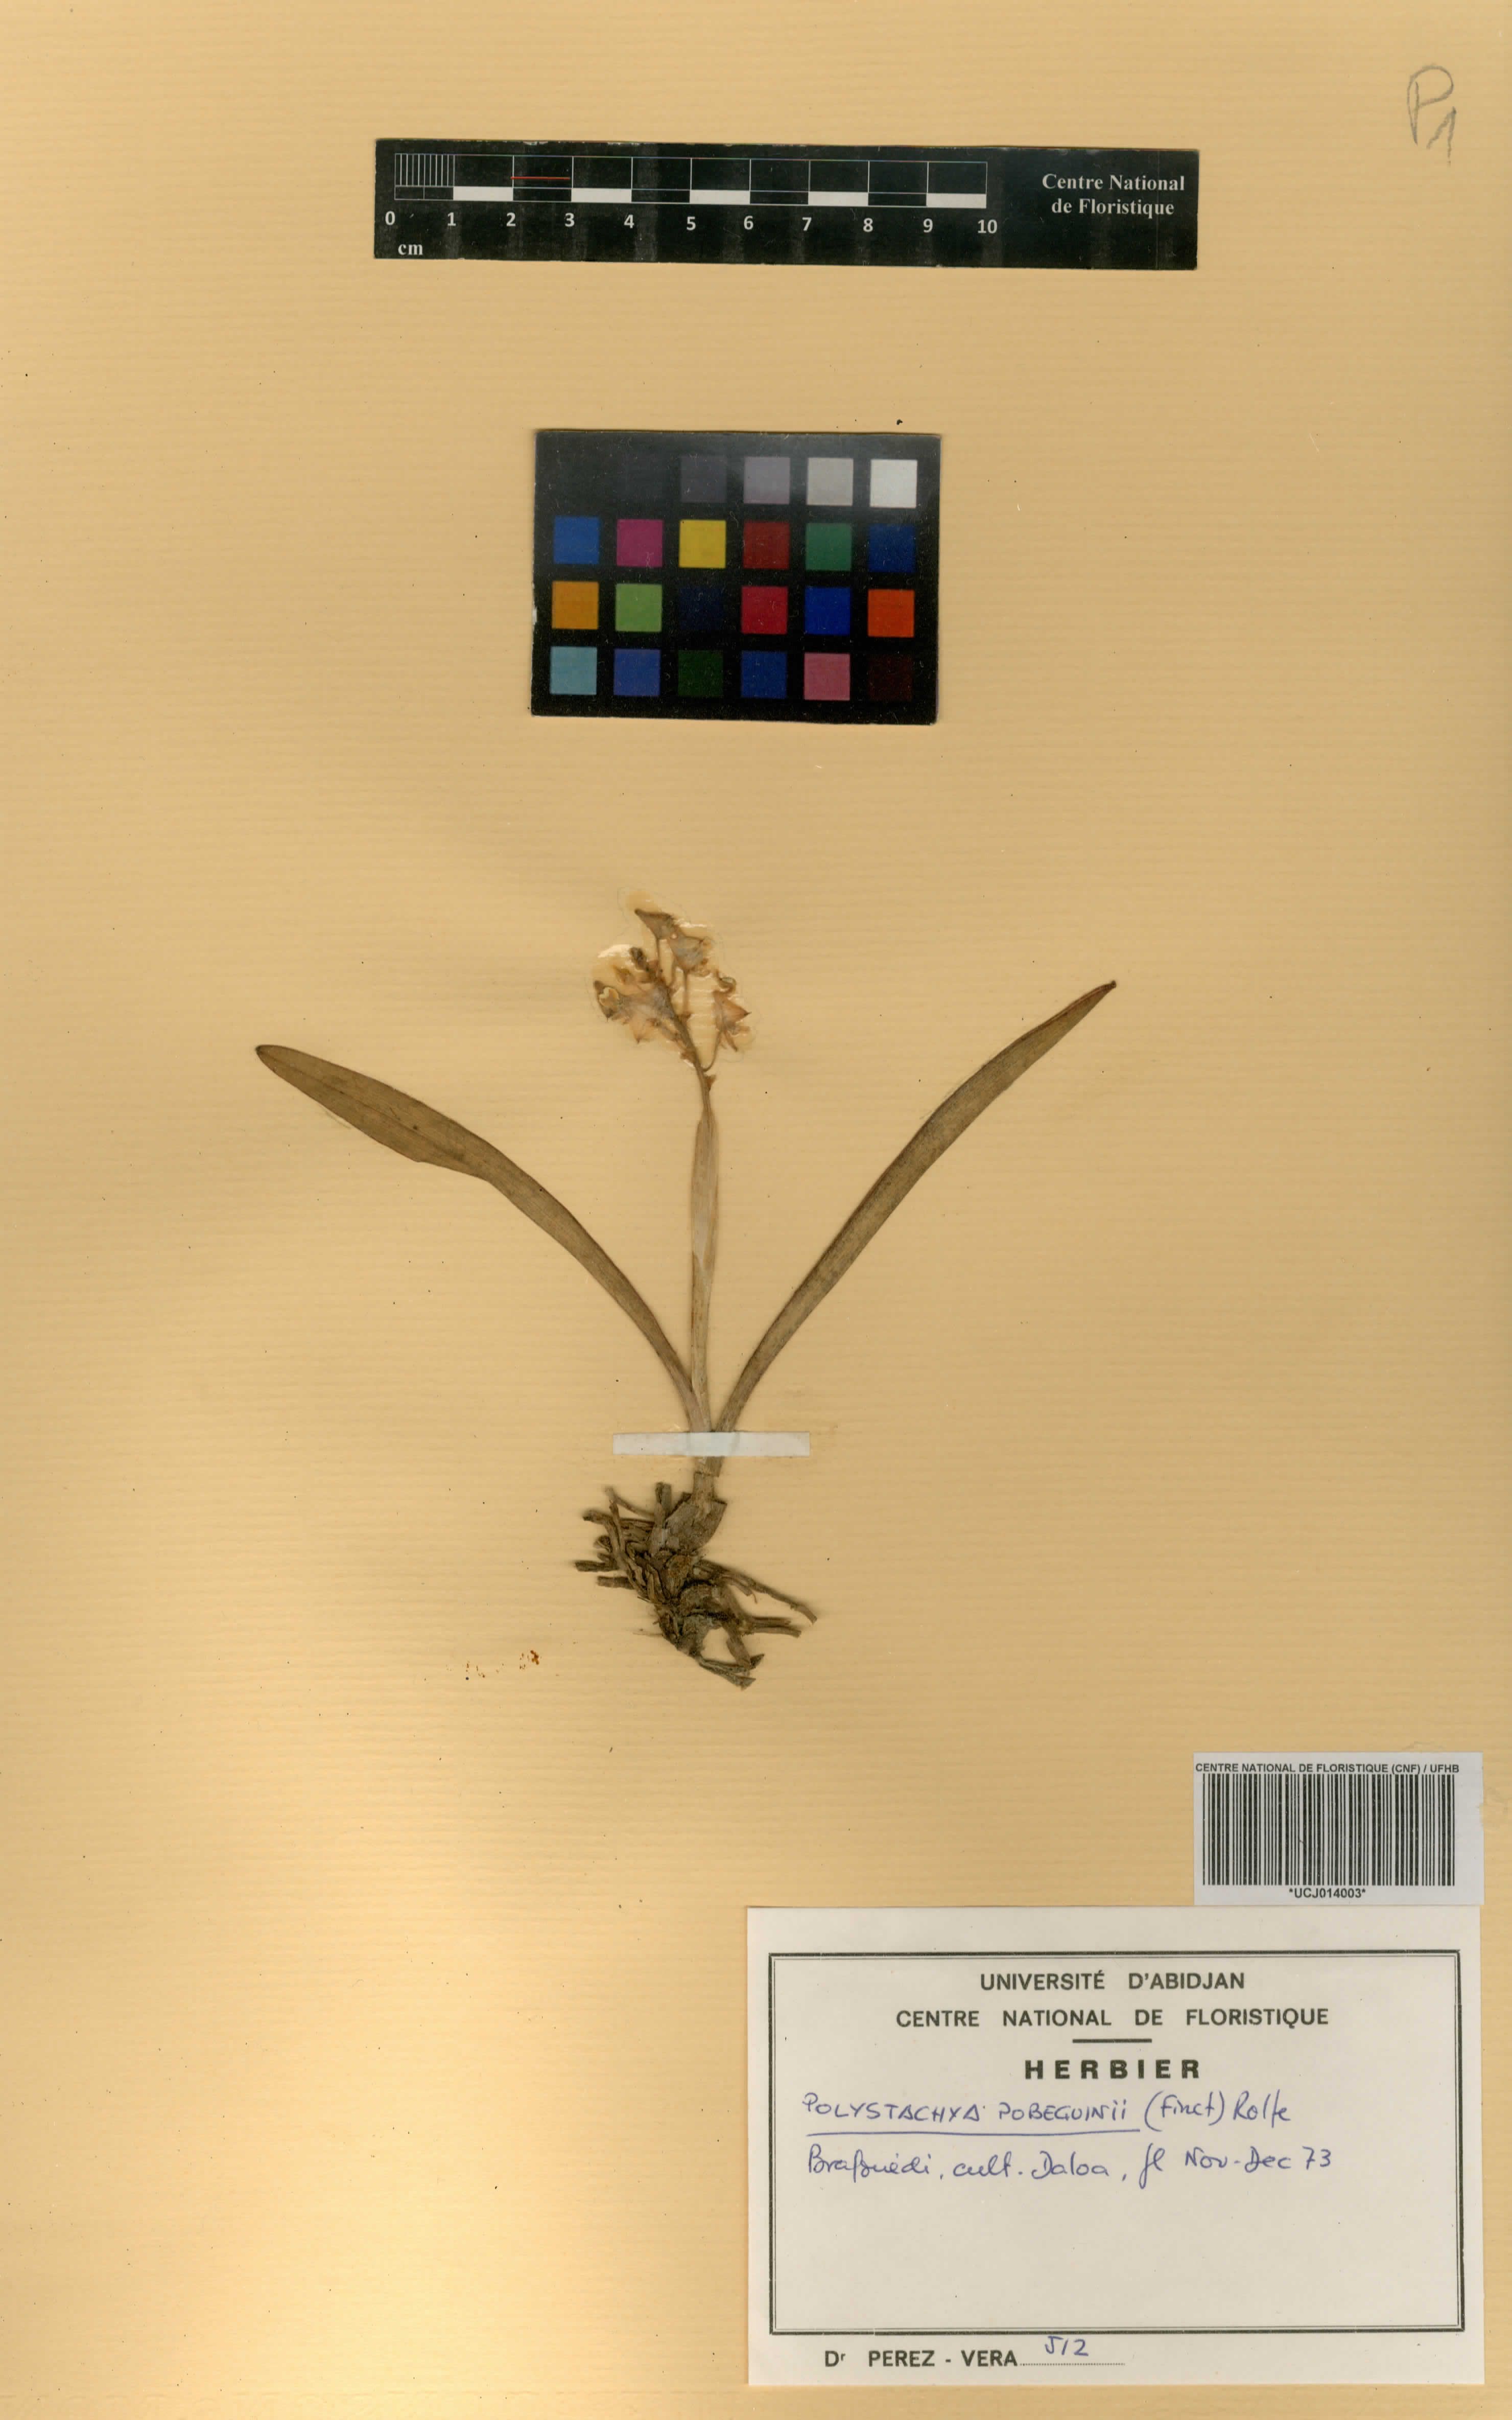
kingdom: Plantae
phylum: Tracheophyta
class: Liliopsida
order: Asparagales
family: Orchidaceae
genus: Polystachya
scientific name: Polystachya pobeguinii
